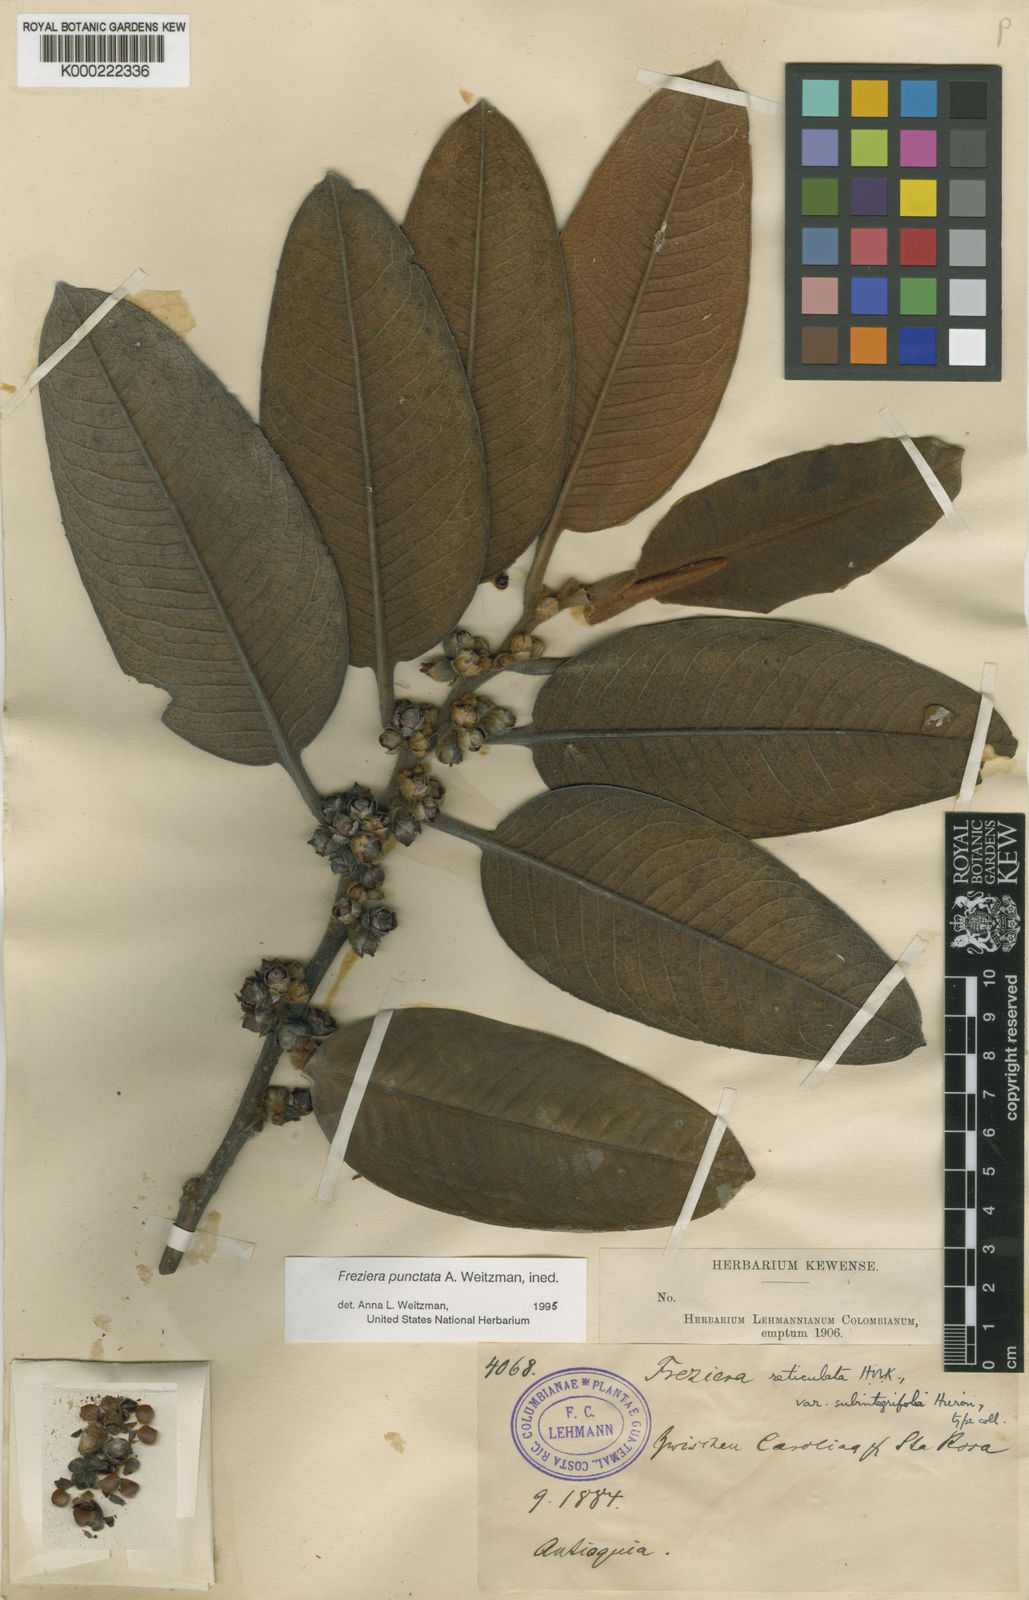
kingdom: Plantae
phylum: Tracheophyta
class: Magnoliopsida
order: Ericales
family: Pentaphylacaceae
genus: Freziera
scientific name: Freziera reticulata
